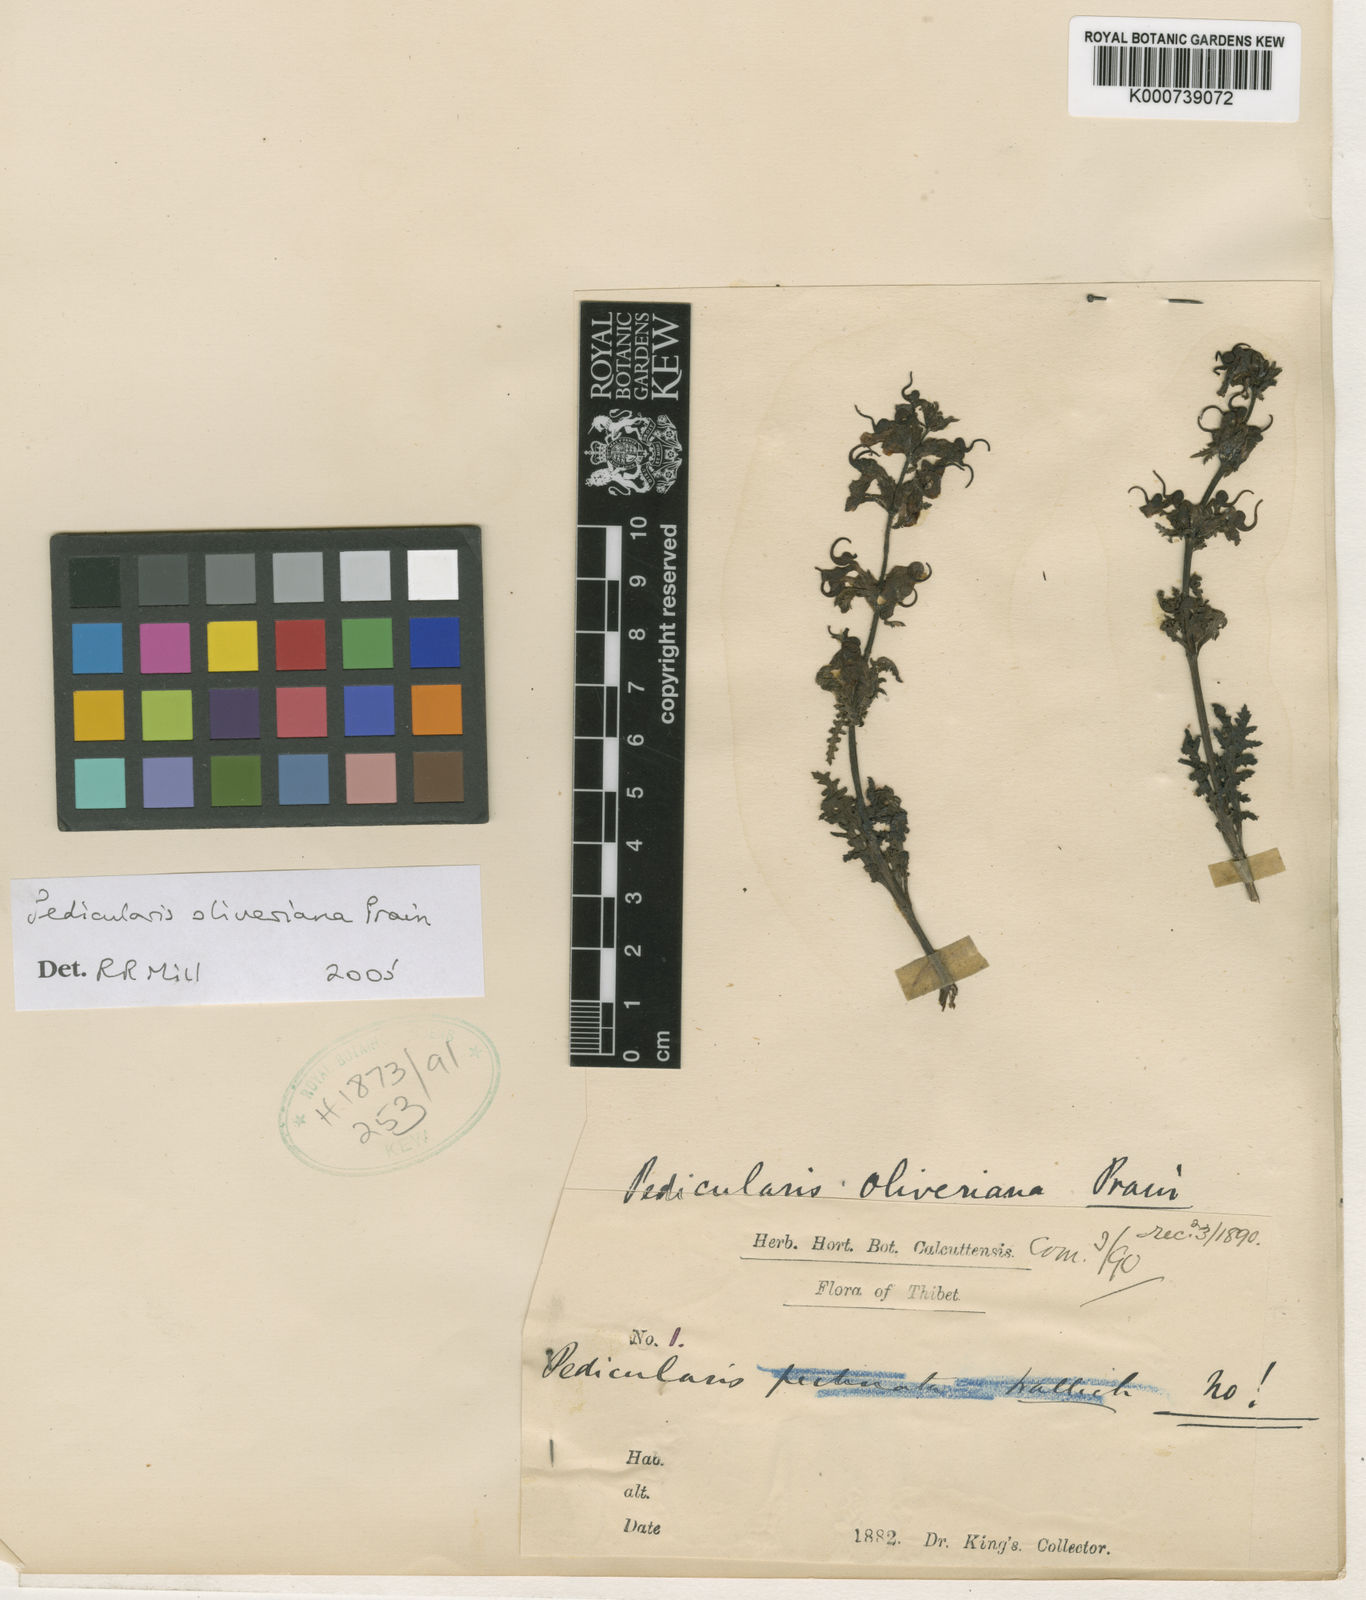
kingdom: Plantae
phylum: Tracheophyta
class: Magnoliopsida
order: Lamiales
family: Orobanchaceae
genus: Pedicularis
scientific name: Pedicularis oliveriana
